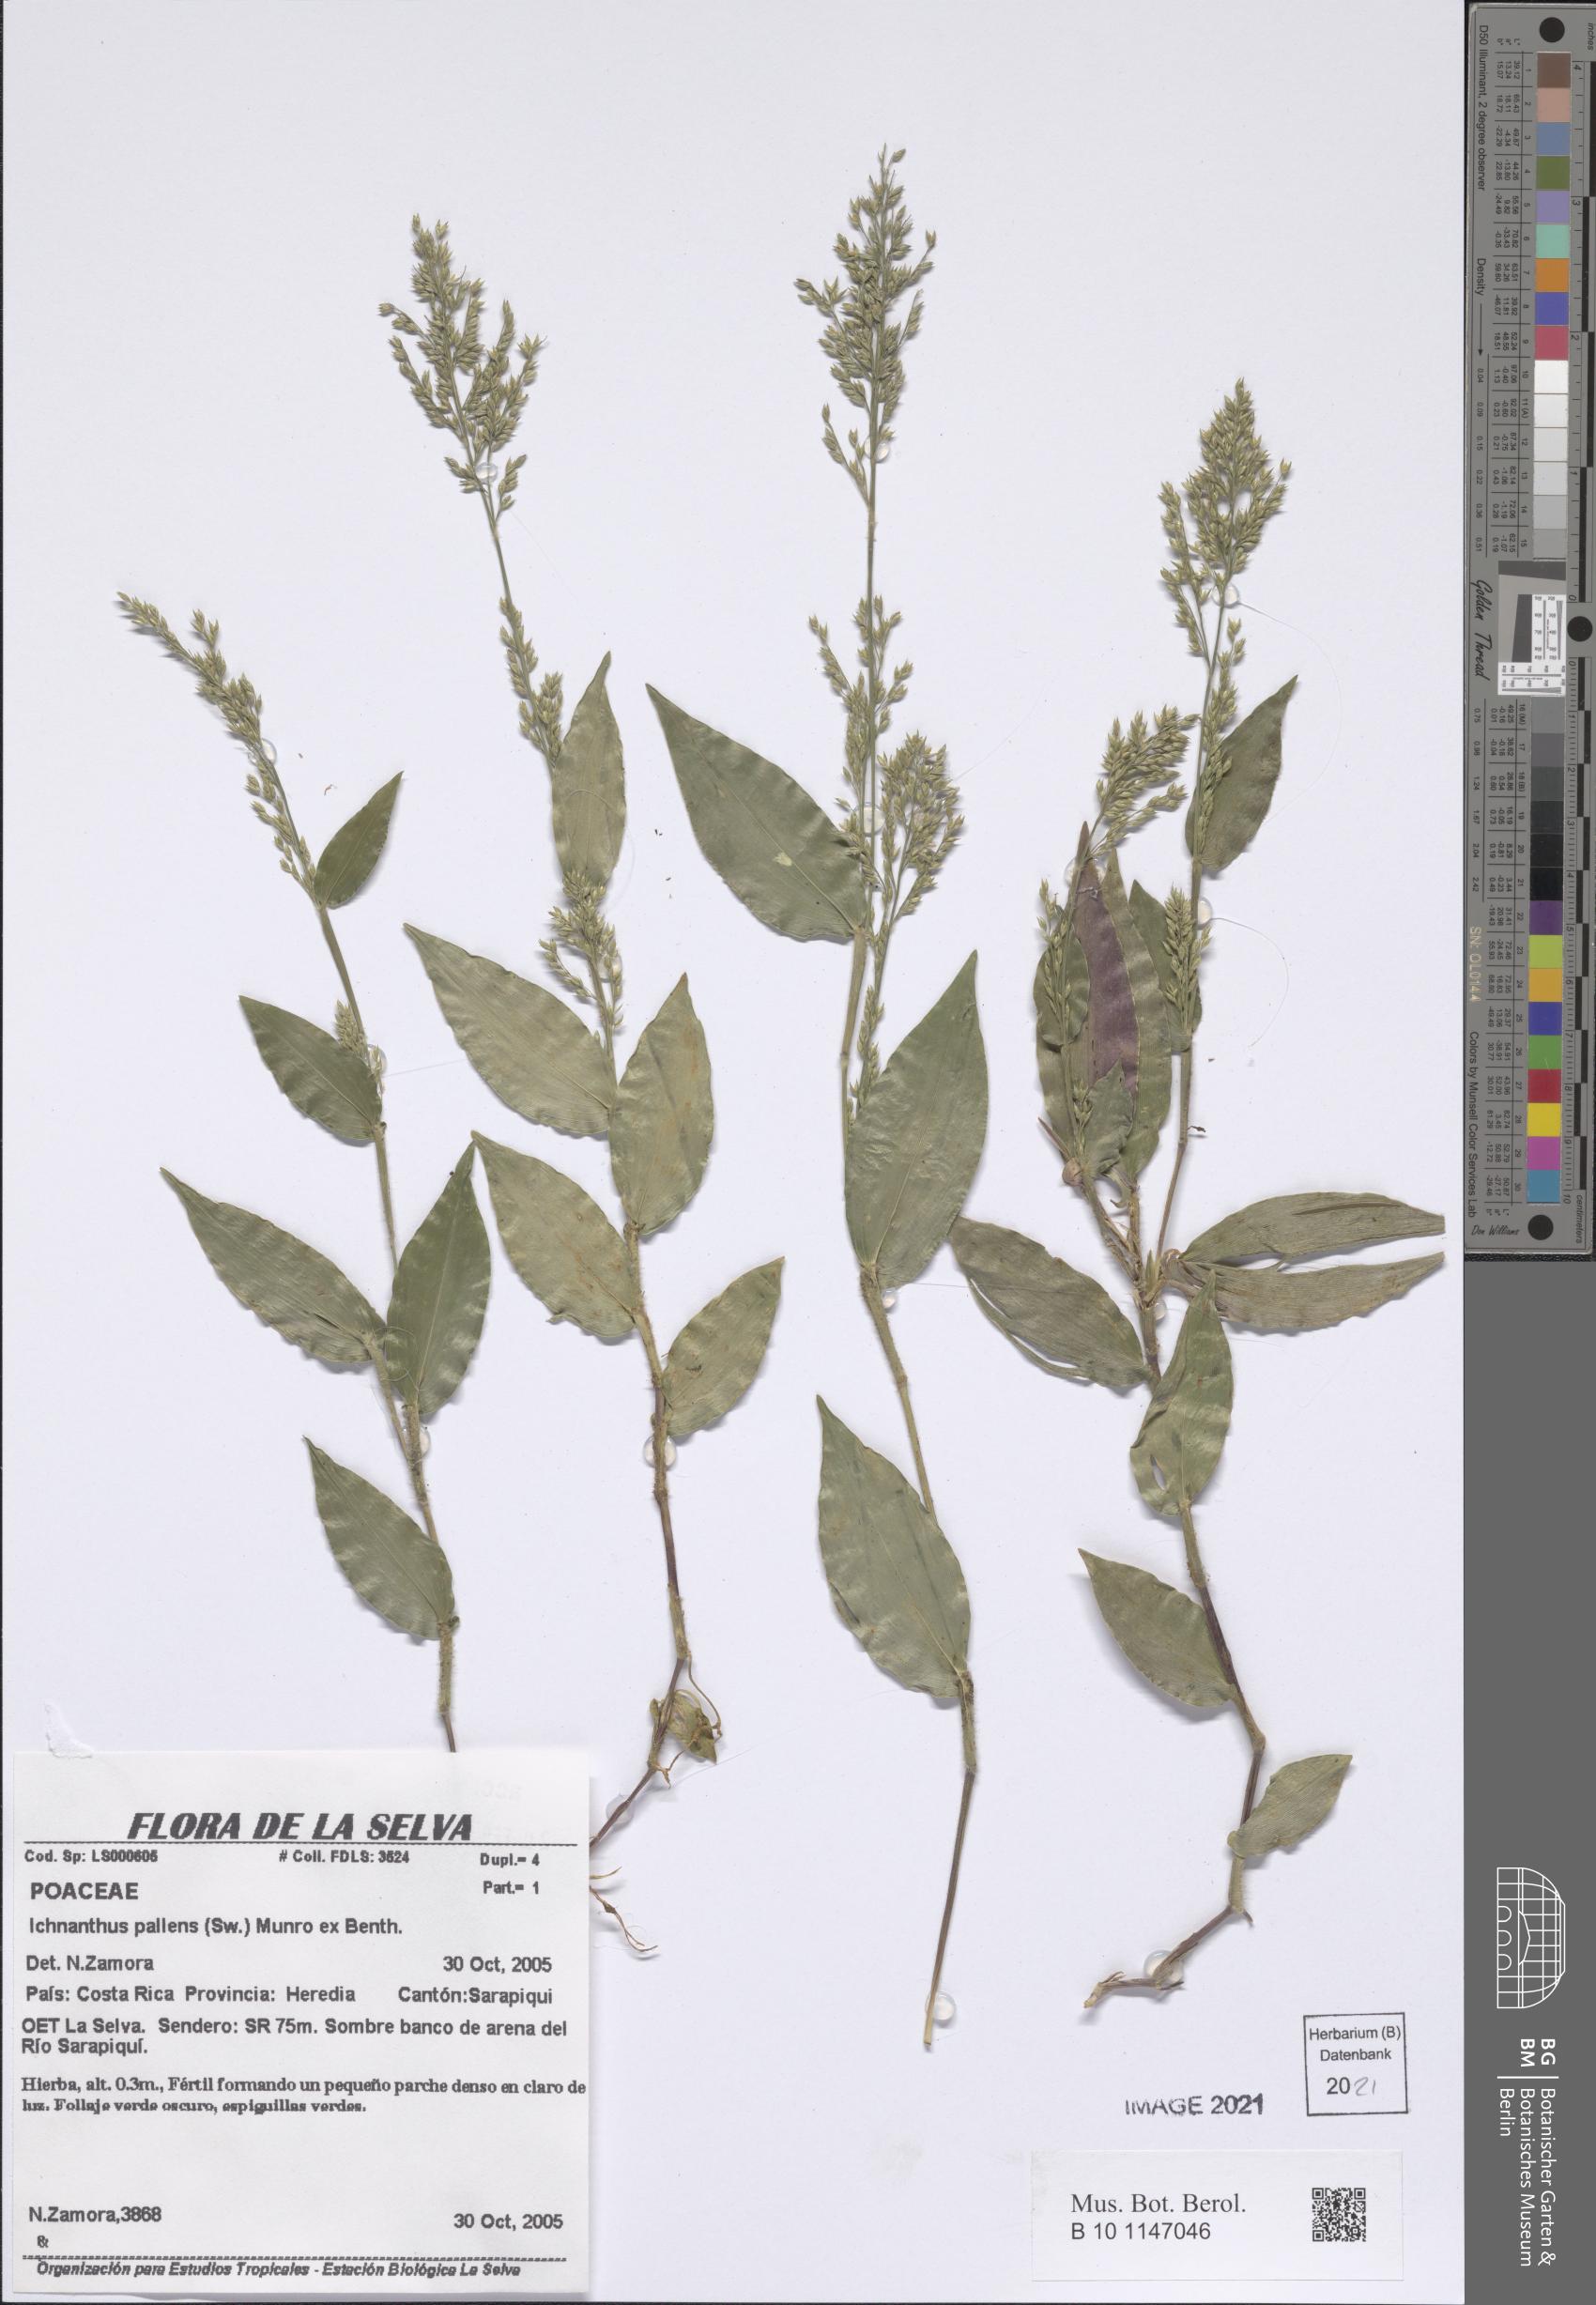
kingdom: Plantae
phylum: Tracheophyta
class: Liliopsida
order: Poales
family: Poaceae
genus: Ichnanthus
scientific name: Ichnanthus pallens
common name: Water grass
